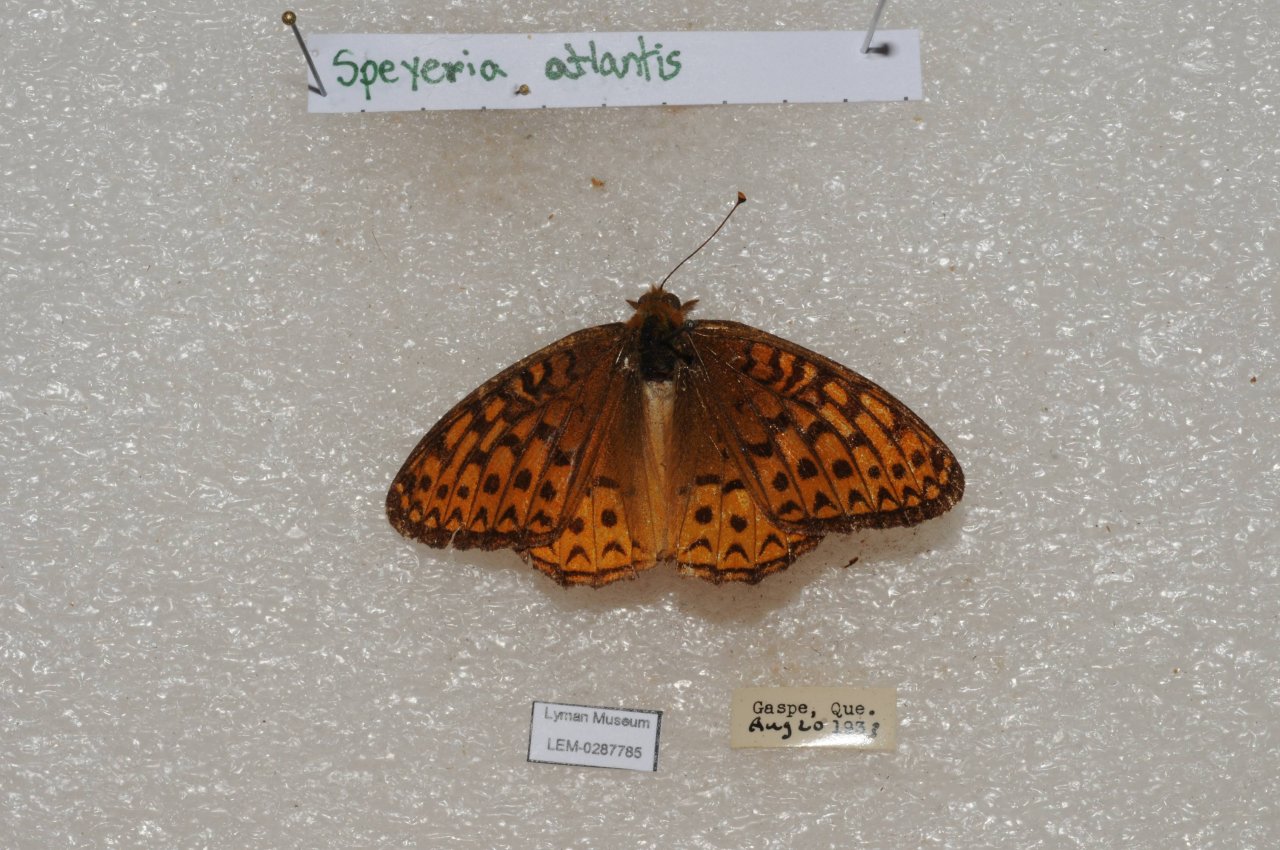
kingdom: Animalia
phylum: Arthropoda
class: Insecta
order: Lepidoptera
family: Nymphalidae
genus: Speyeria
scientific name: Speyeria atlantis
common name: Atlantis Fritillary
